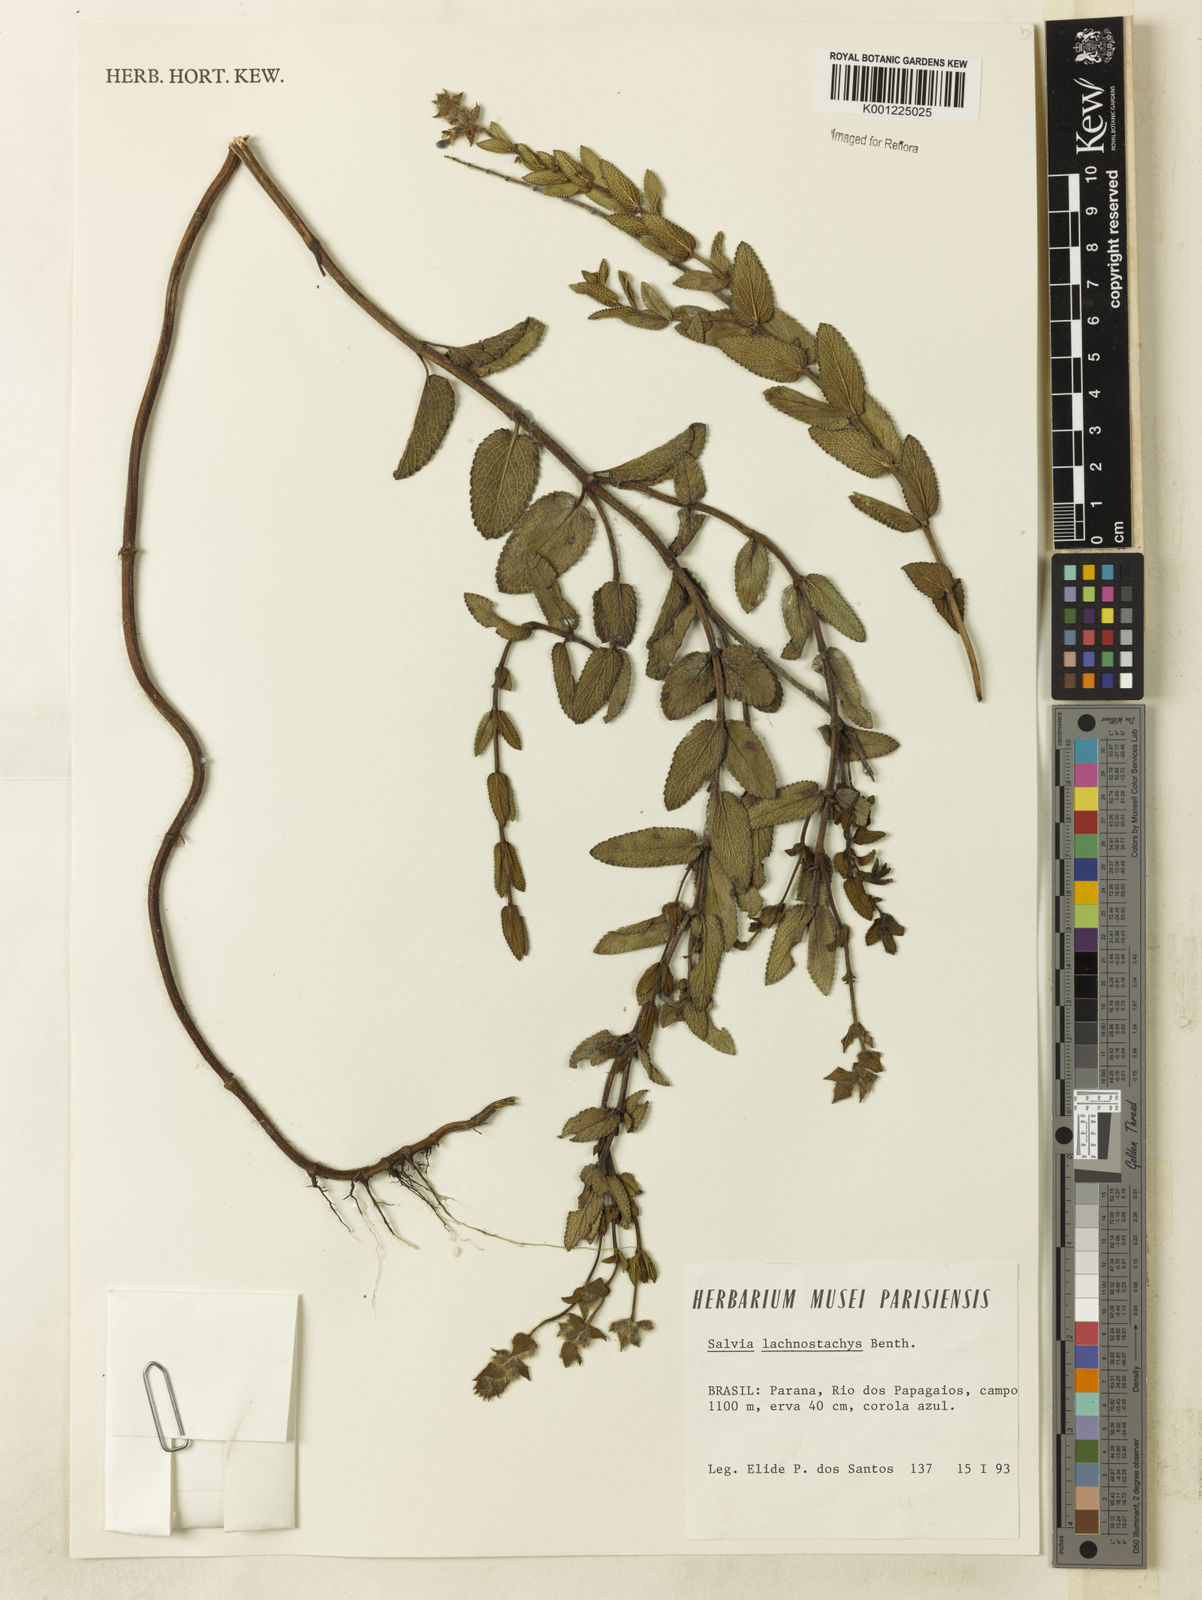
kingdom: Plantae
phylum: Tracheophyta
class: Magnoliopsida
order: Lamiales
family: Lamiaceae
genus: Salvia
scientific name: Salvia lachnostachys
